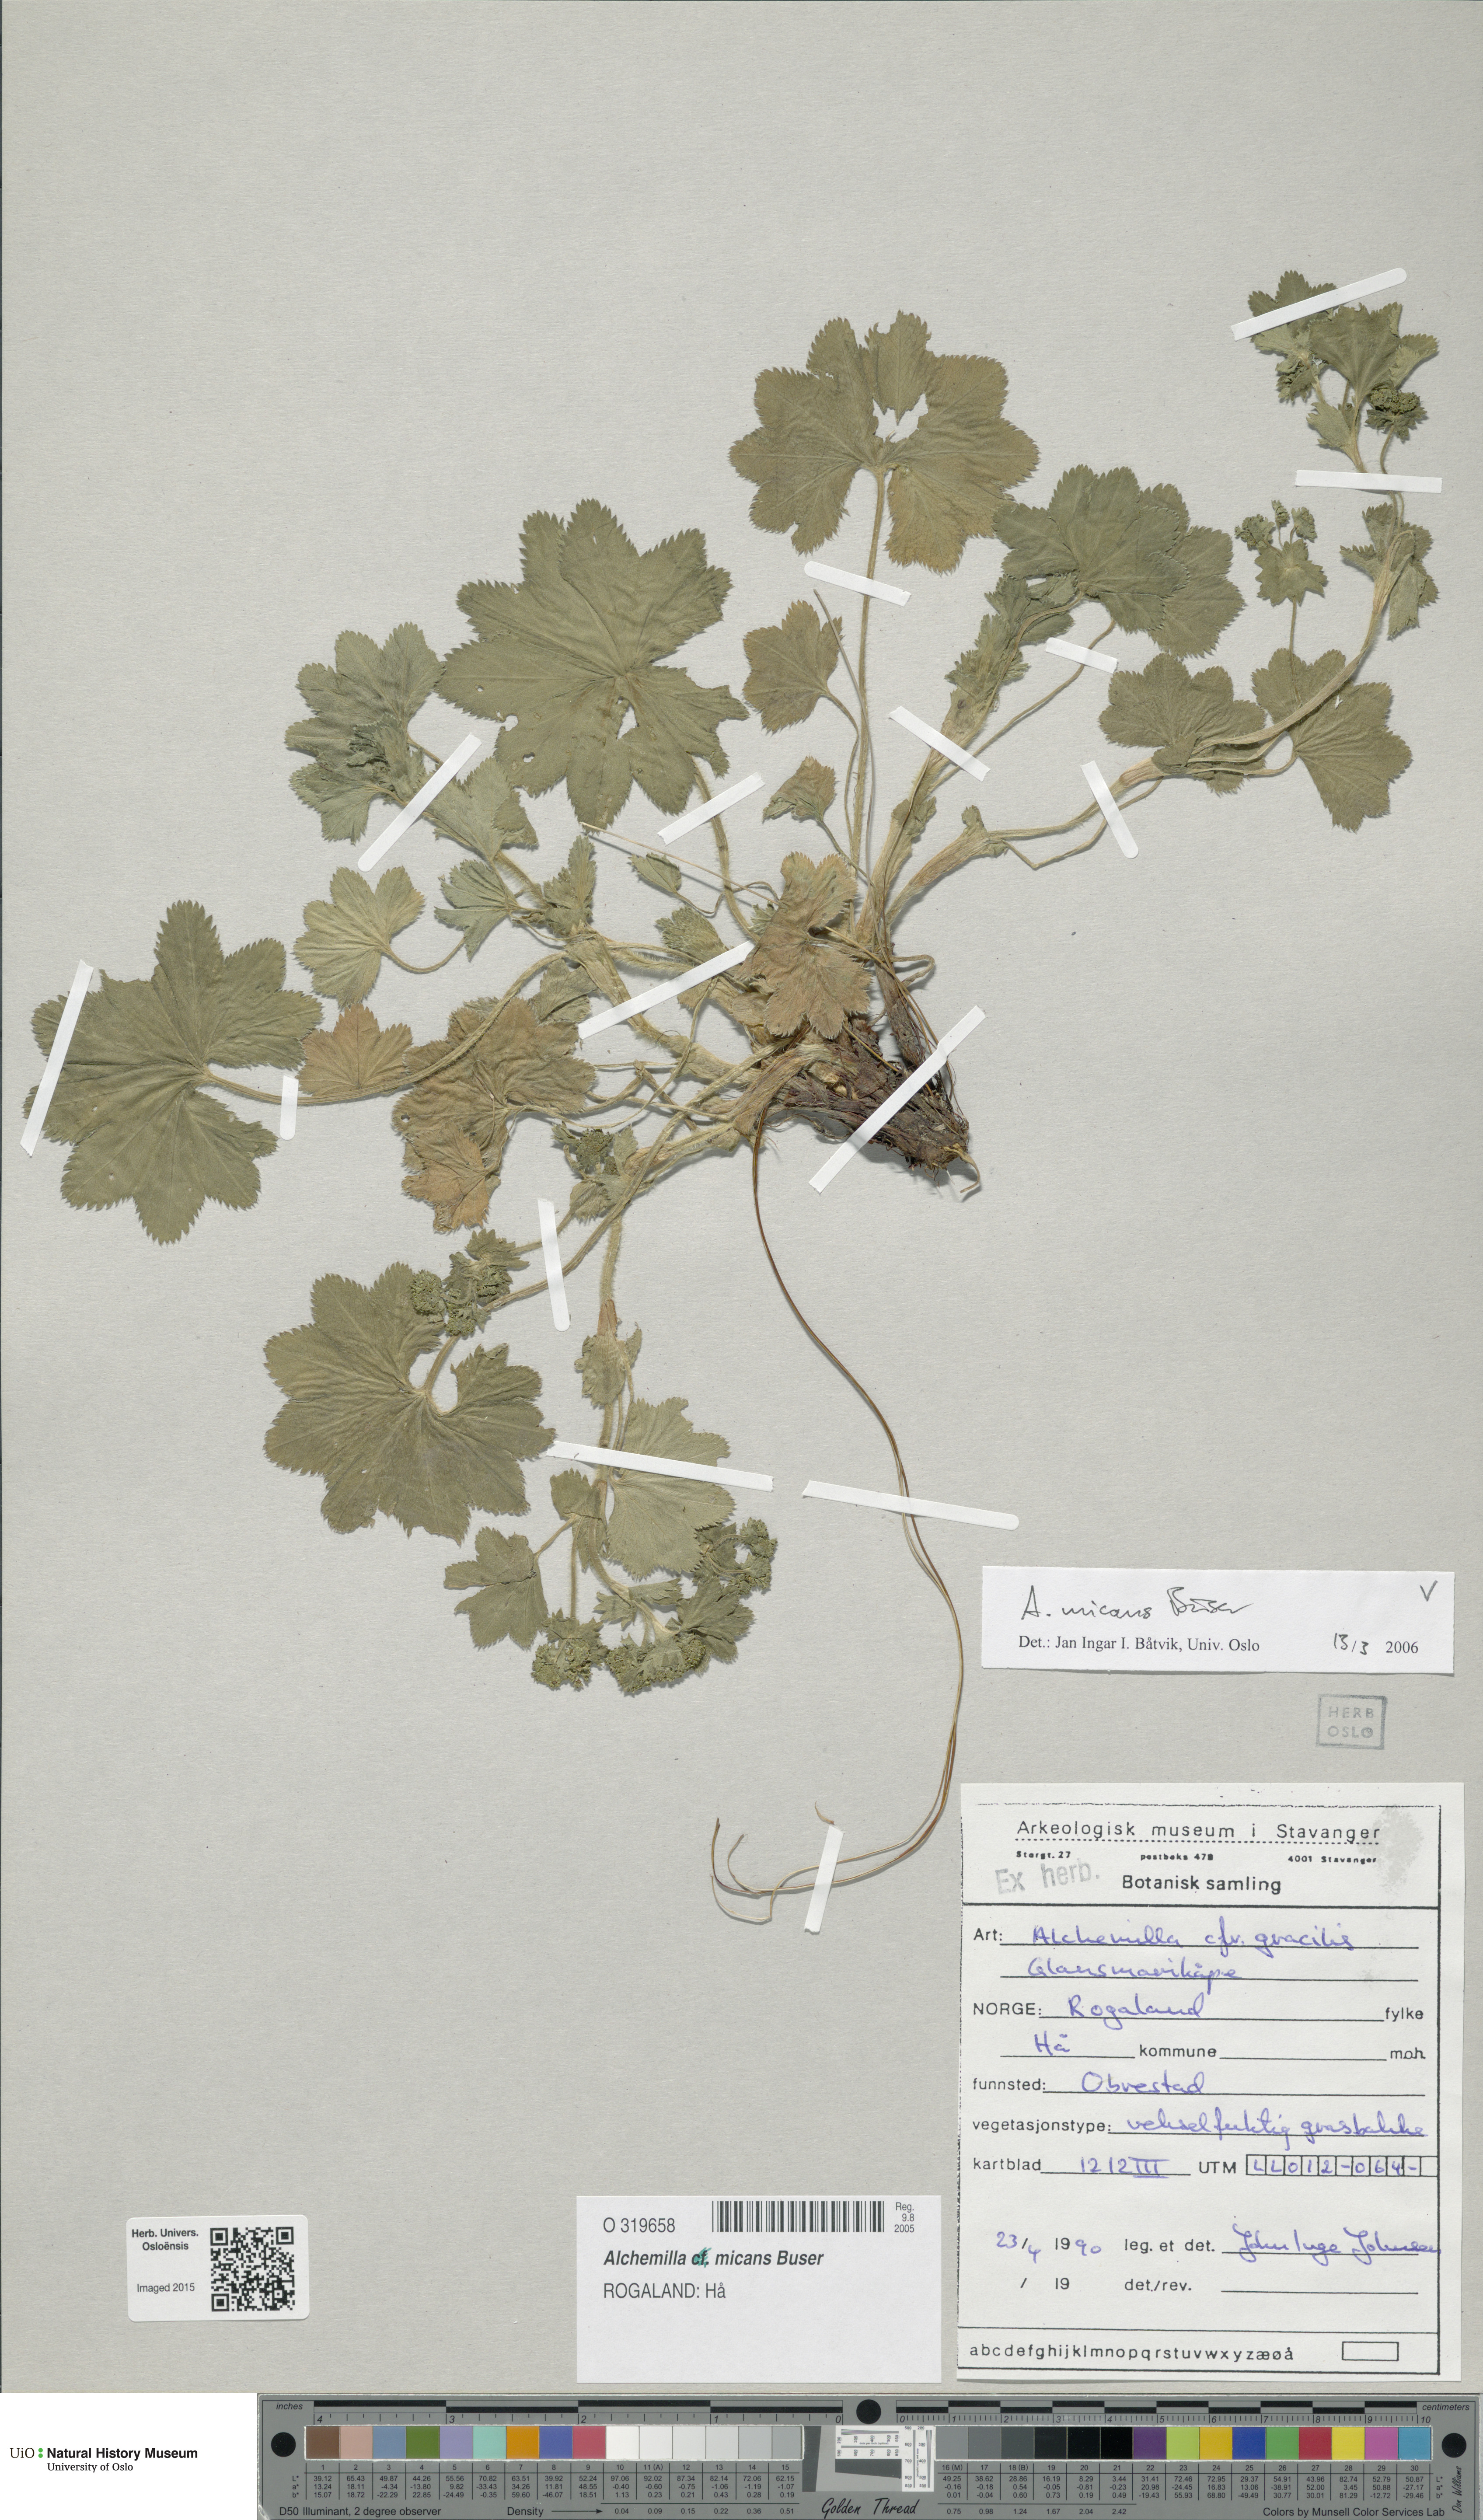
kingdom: Plantae
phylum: Tracheophyta
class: Magnoliopsida
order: Rosales
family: Rosaceae
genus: Alchemilla
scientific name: Alchemilla micans
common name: Gleaming lady's mantle
